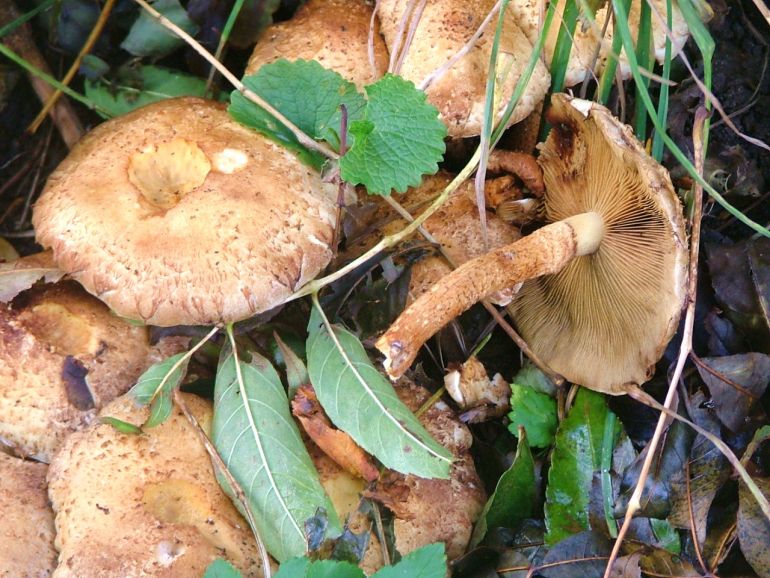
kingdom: Fungi
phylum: Basidiomycota
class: Agaricomycetes
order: Agaricales
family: Strophariaceae
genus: Pholiota
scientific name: Pholiota squarrosa
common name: krumskællet skælhat
